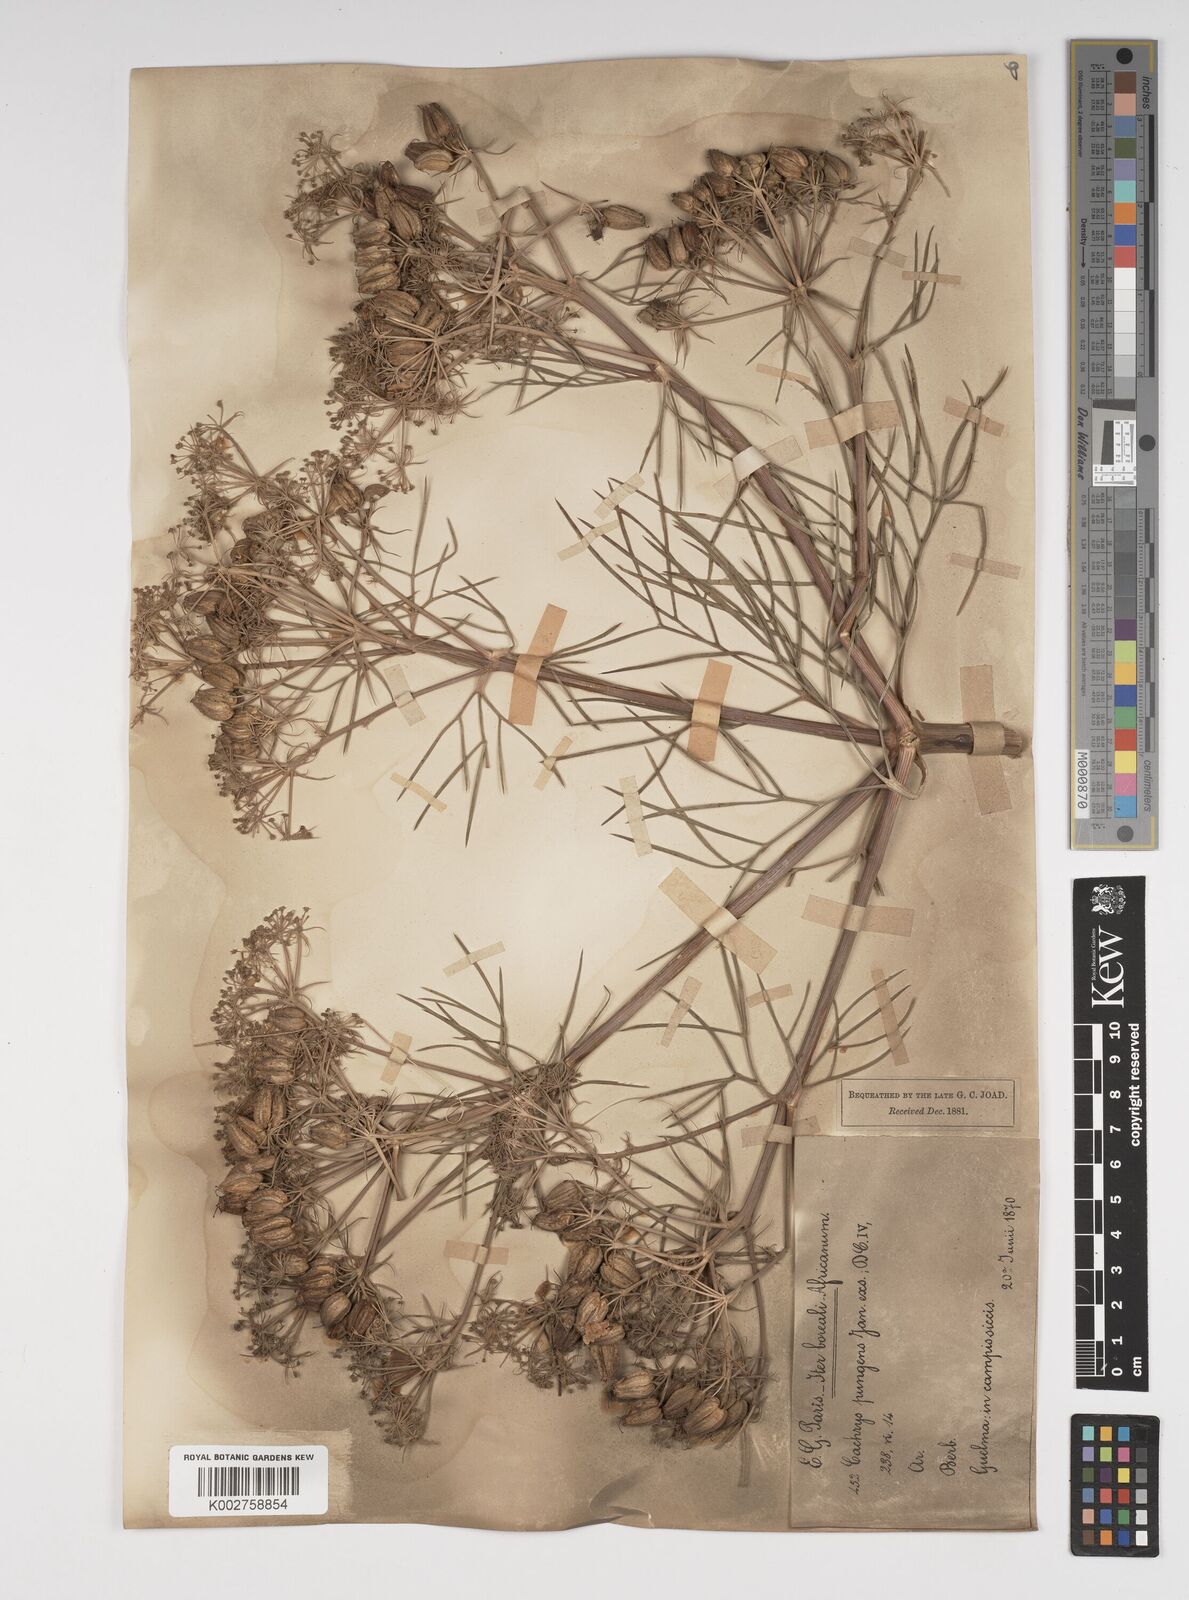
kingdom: Plantae
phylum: Tracheophyta
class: Magnoliopsida
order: Apiales
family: Apiaceae
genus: Cachrys
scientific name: Cachrys
